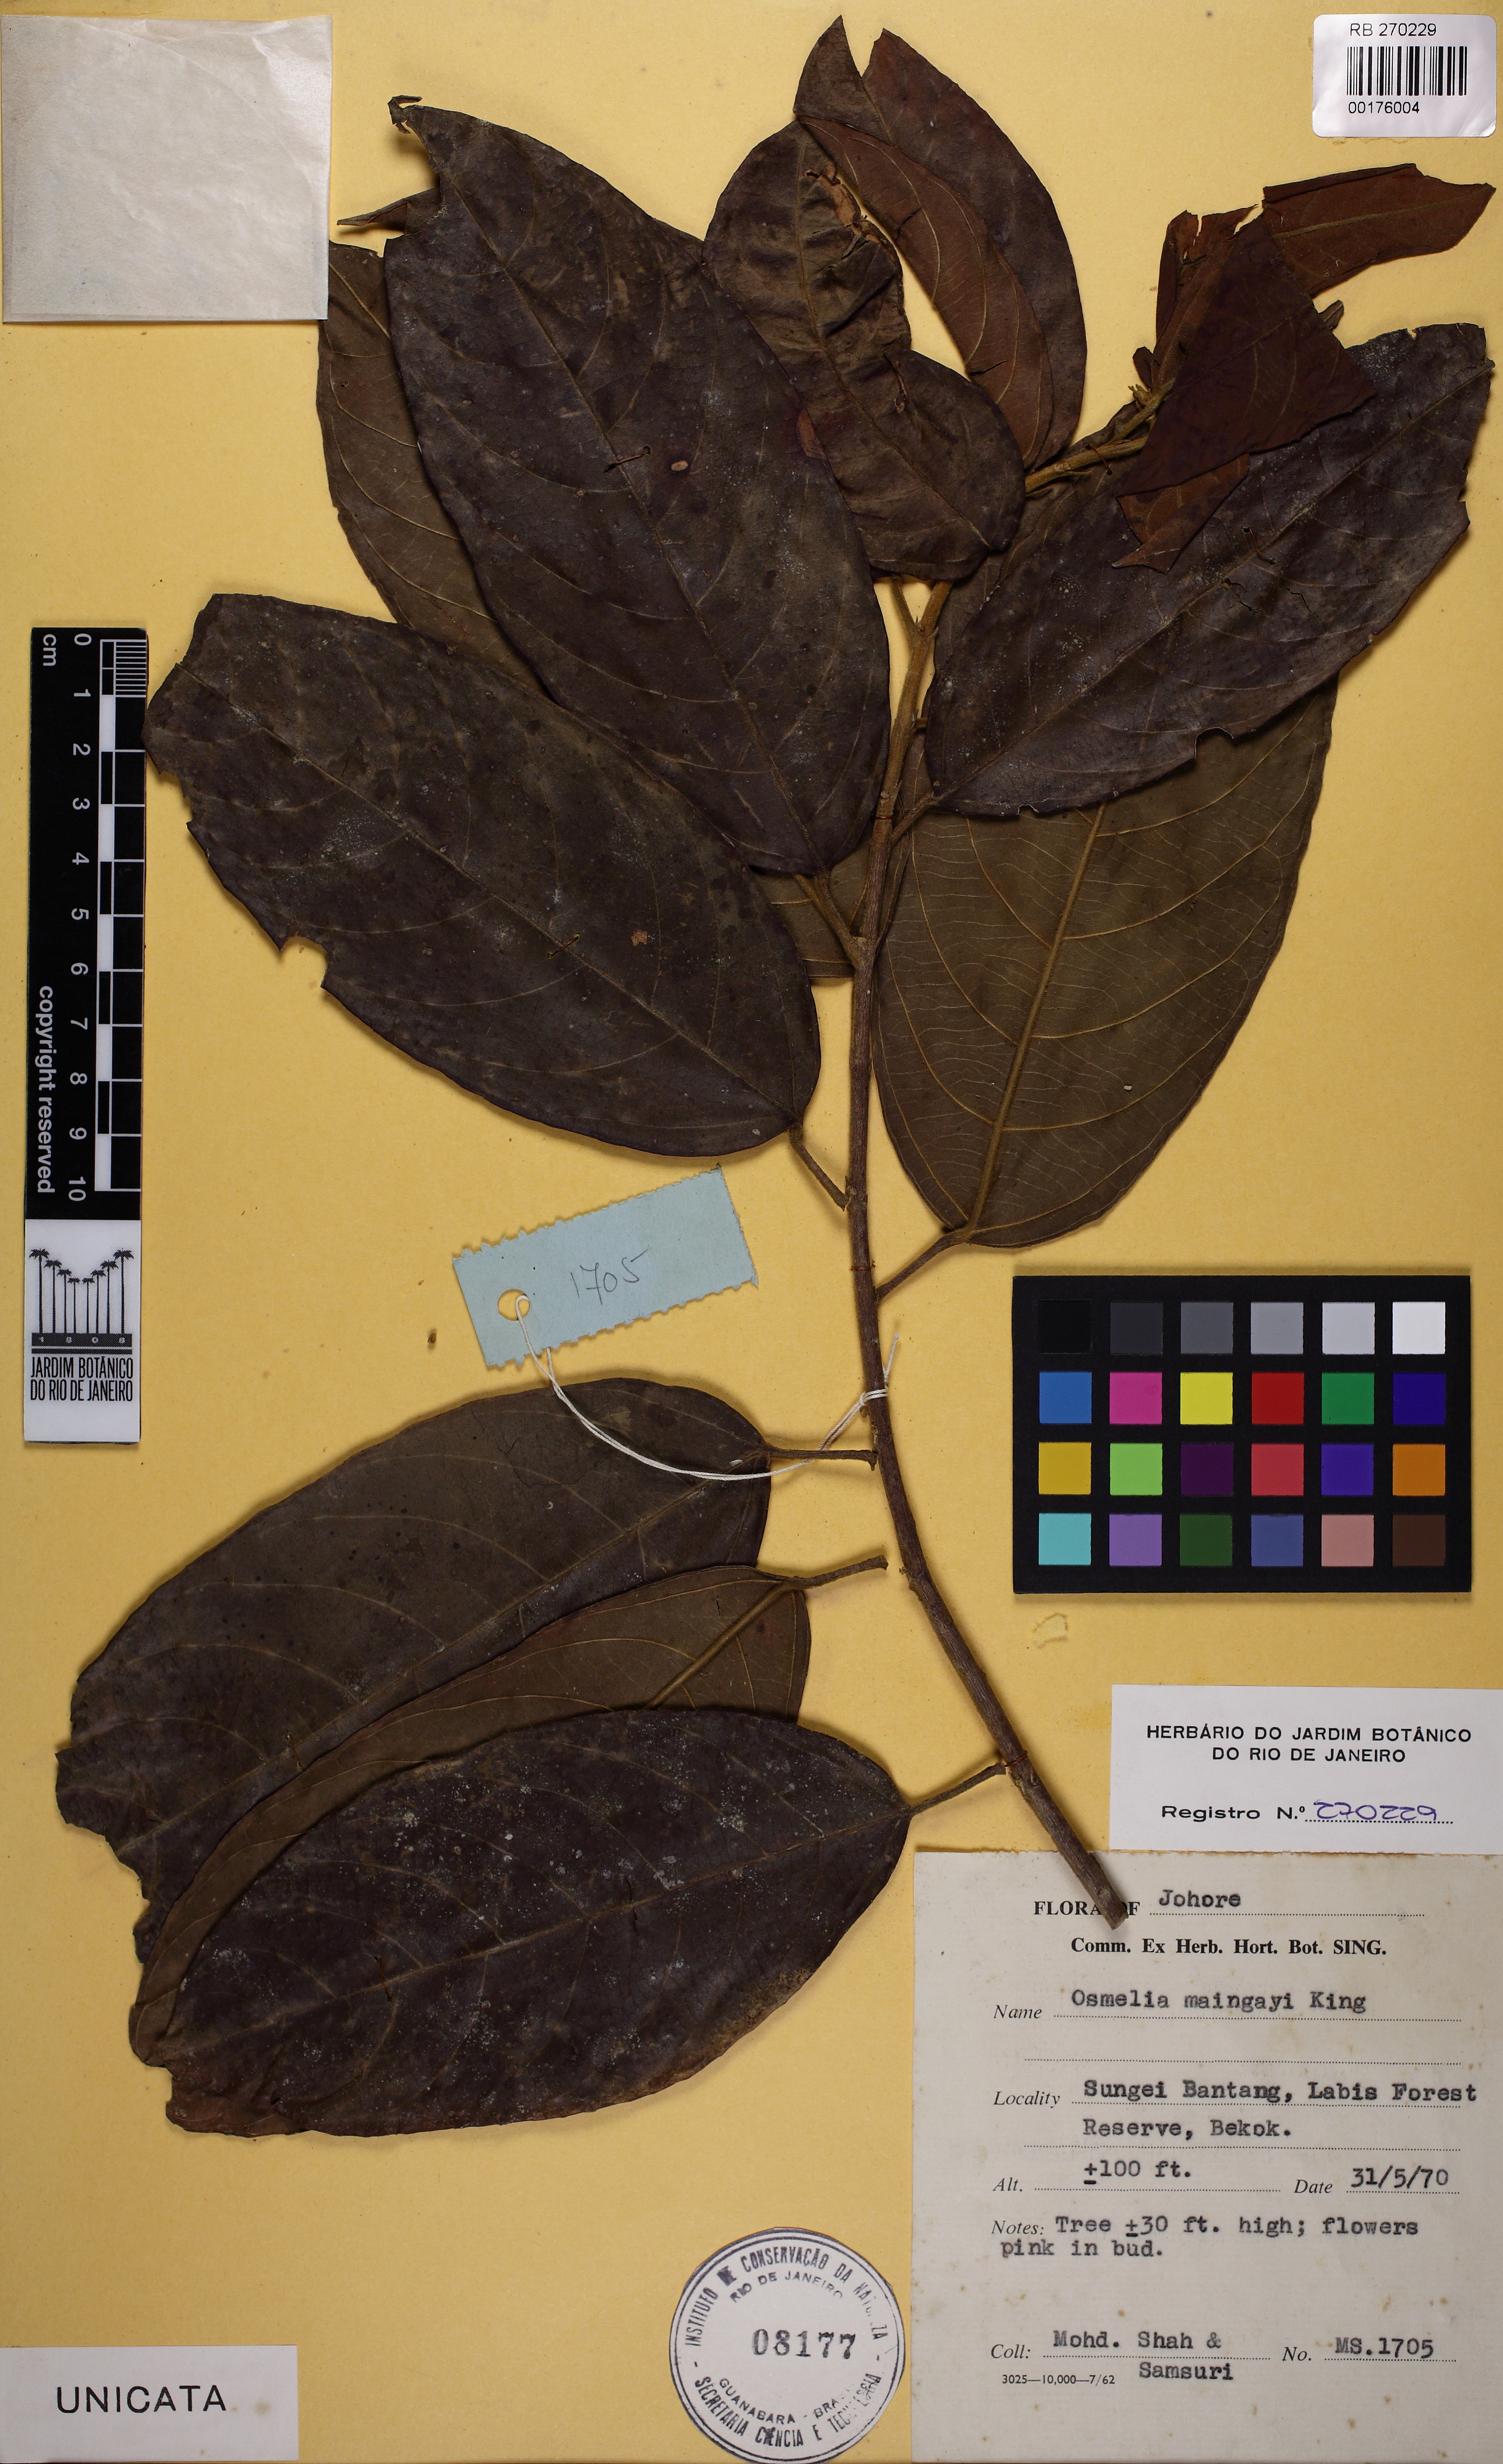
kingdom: Plantae
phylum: Tracheophyta
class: Magnoliopsida
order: Malpighiales
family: Salicaceae
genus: Osmelia
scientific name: Osmelia maingayi
